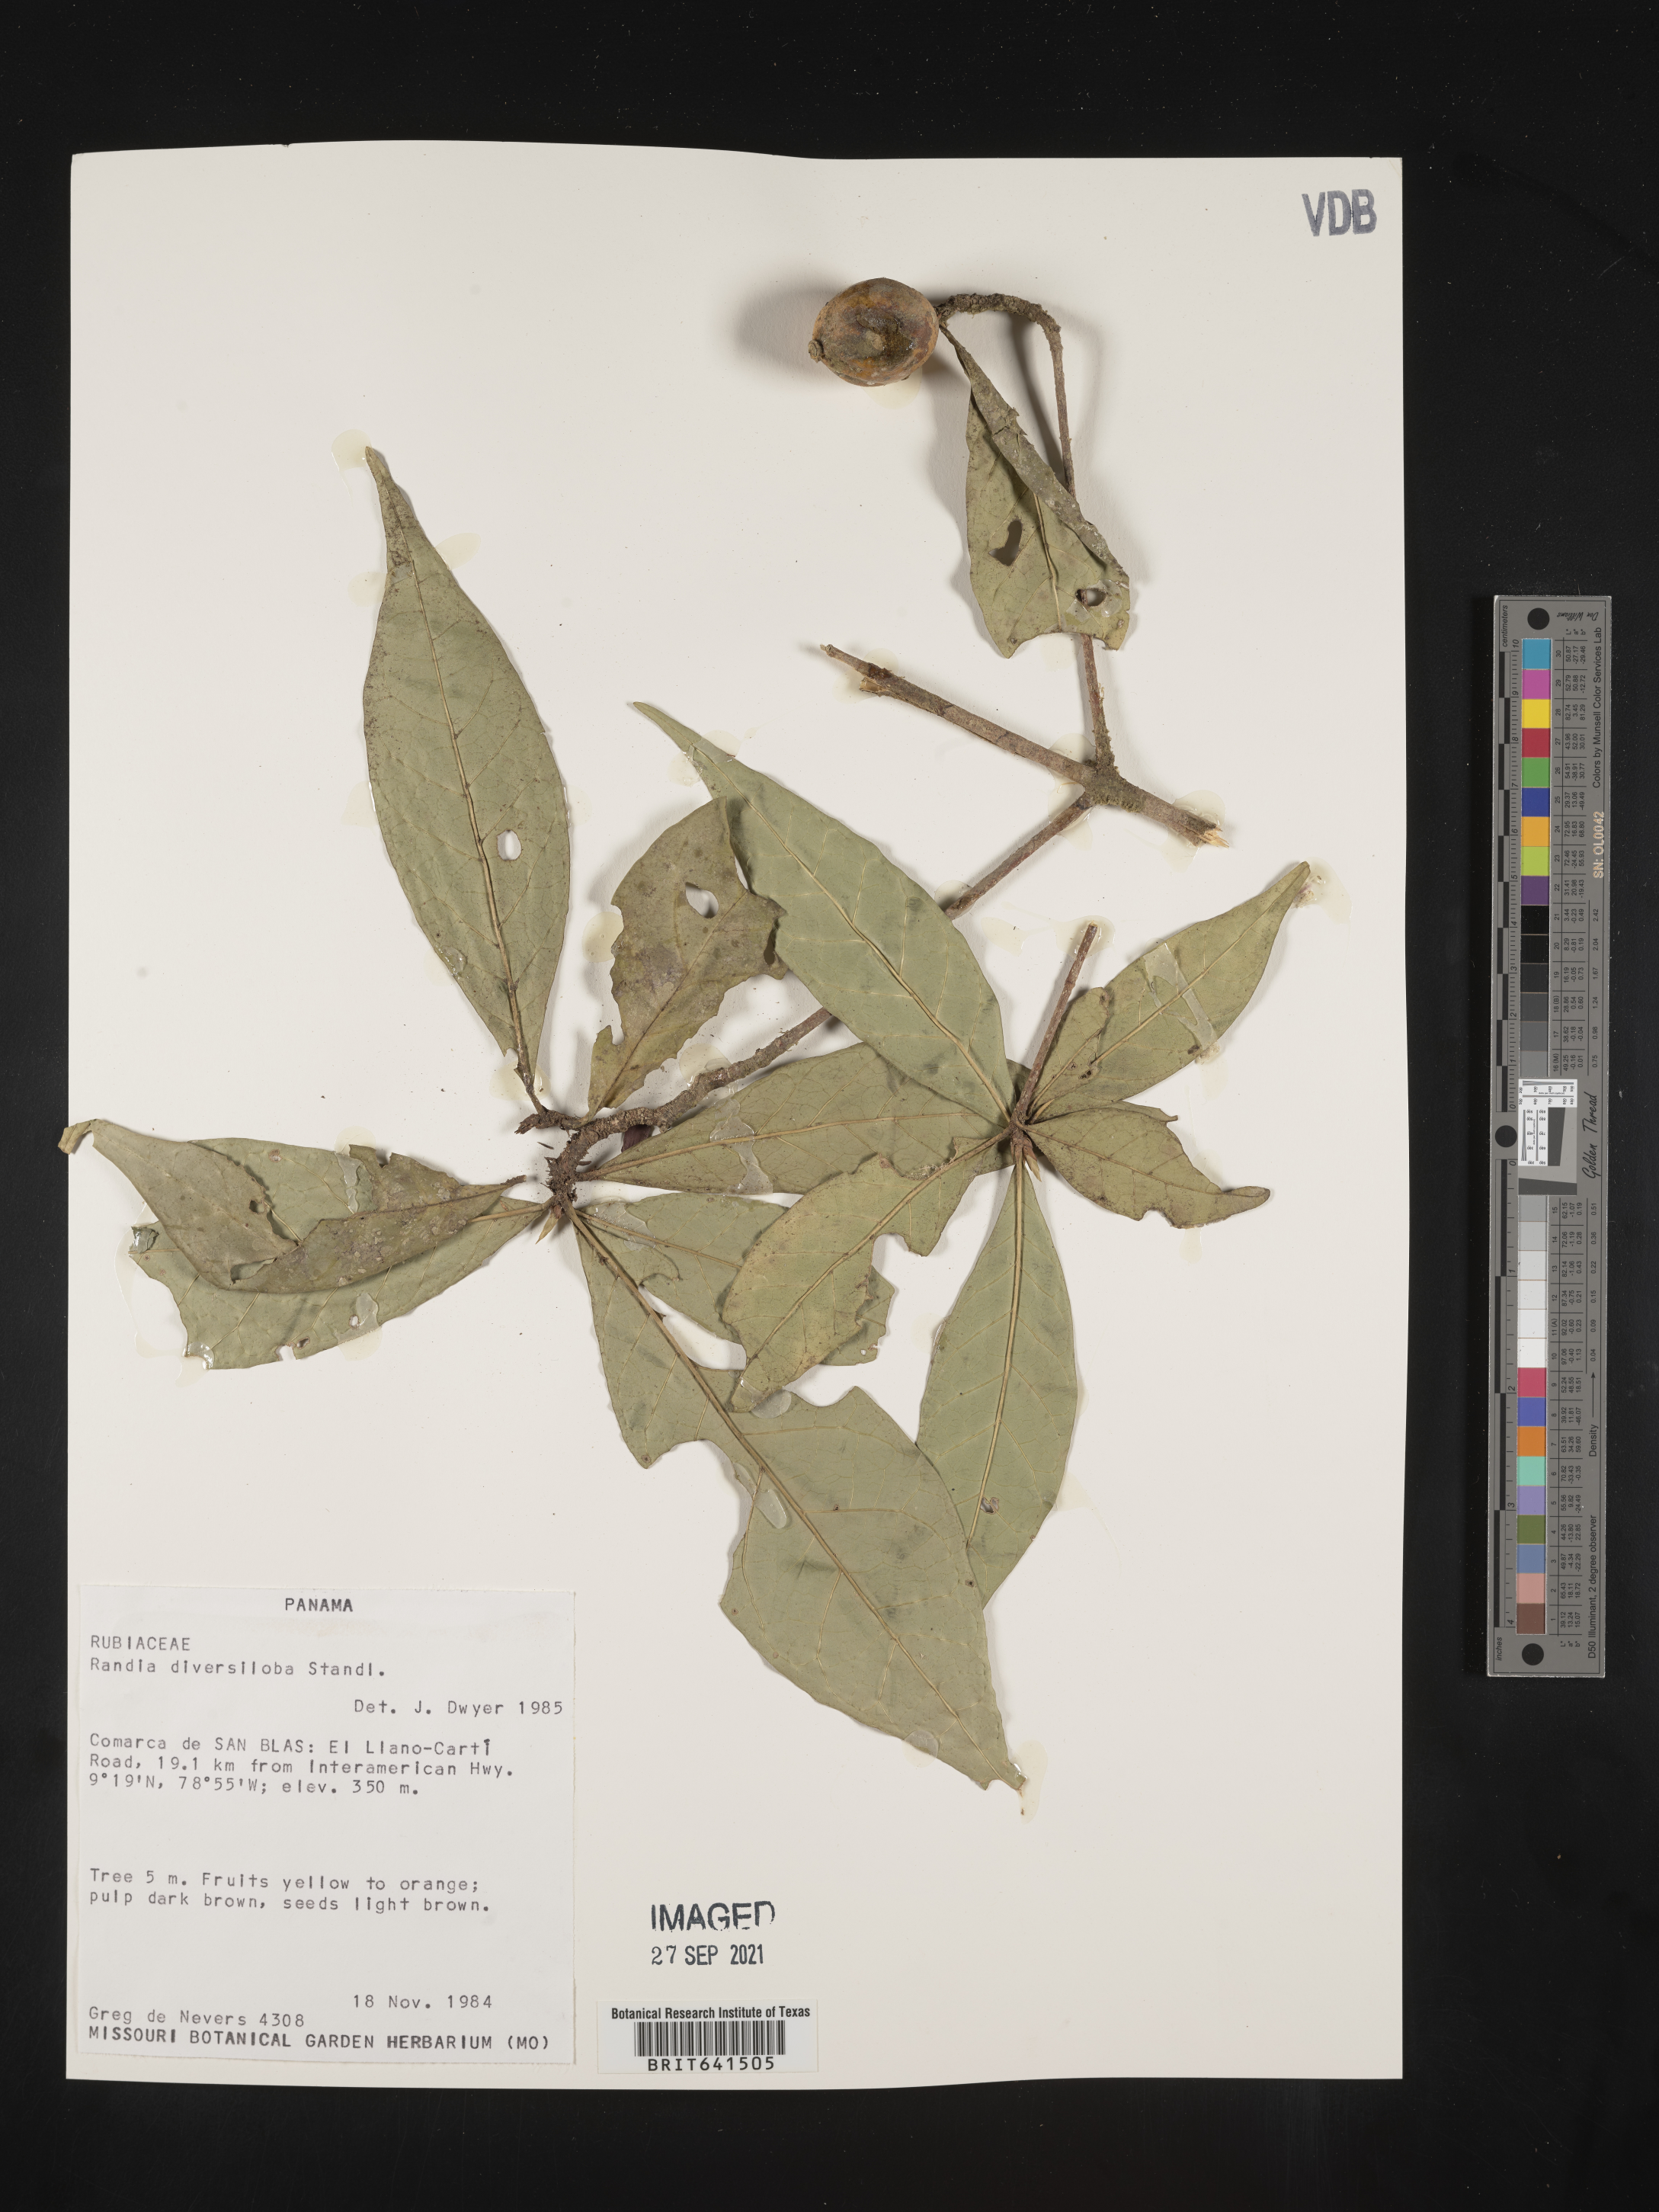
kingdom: Plantae
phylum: Tracheophyta
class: Magnoliopsida
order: Gentianales
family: Rubiaceae
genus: Randia
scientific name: Randia
